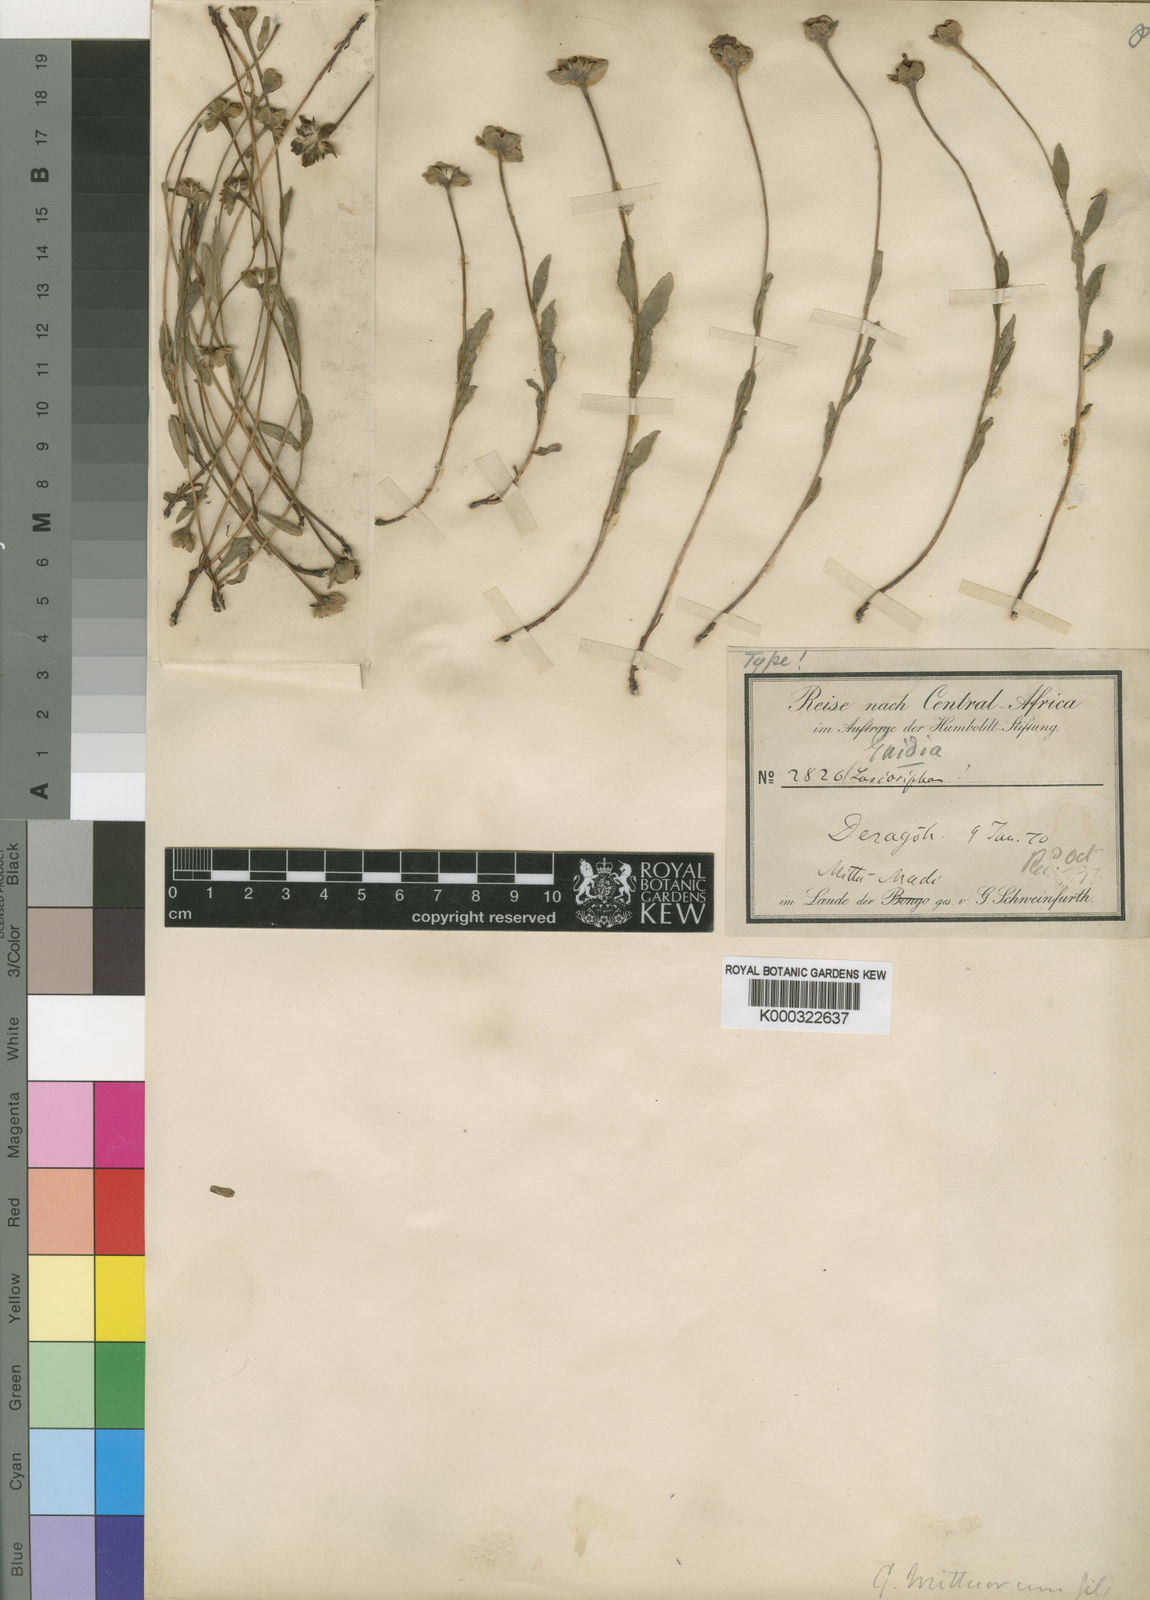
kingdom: Plantae
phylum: Tracheophyta
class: Magnoliopsida
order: Malvales
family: Thymelaeaceae
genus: Gnidia
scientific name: Gnidia involucrata
